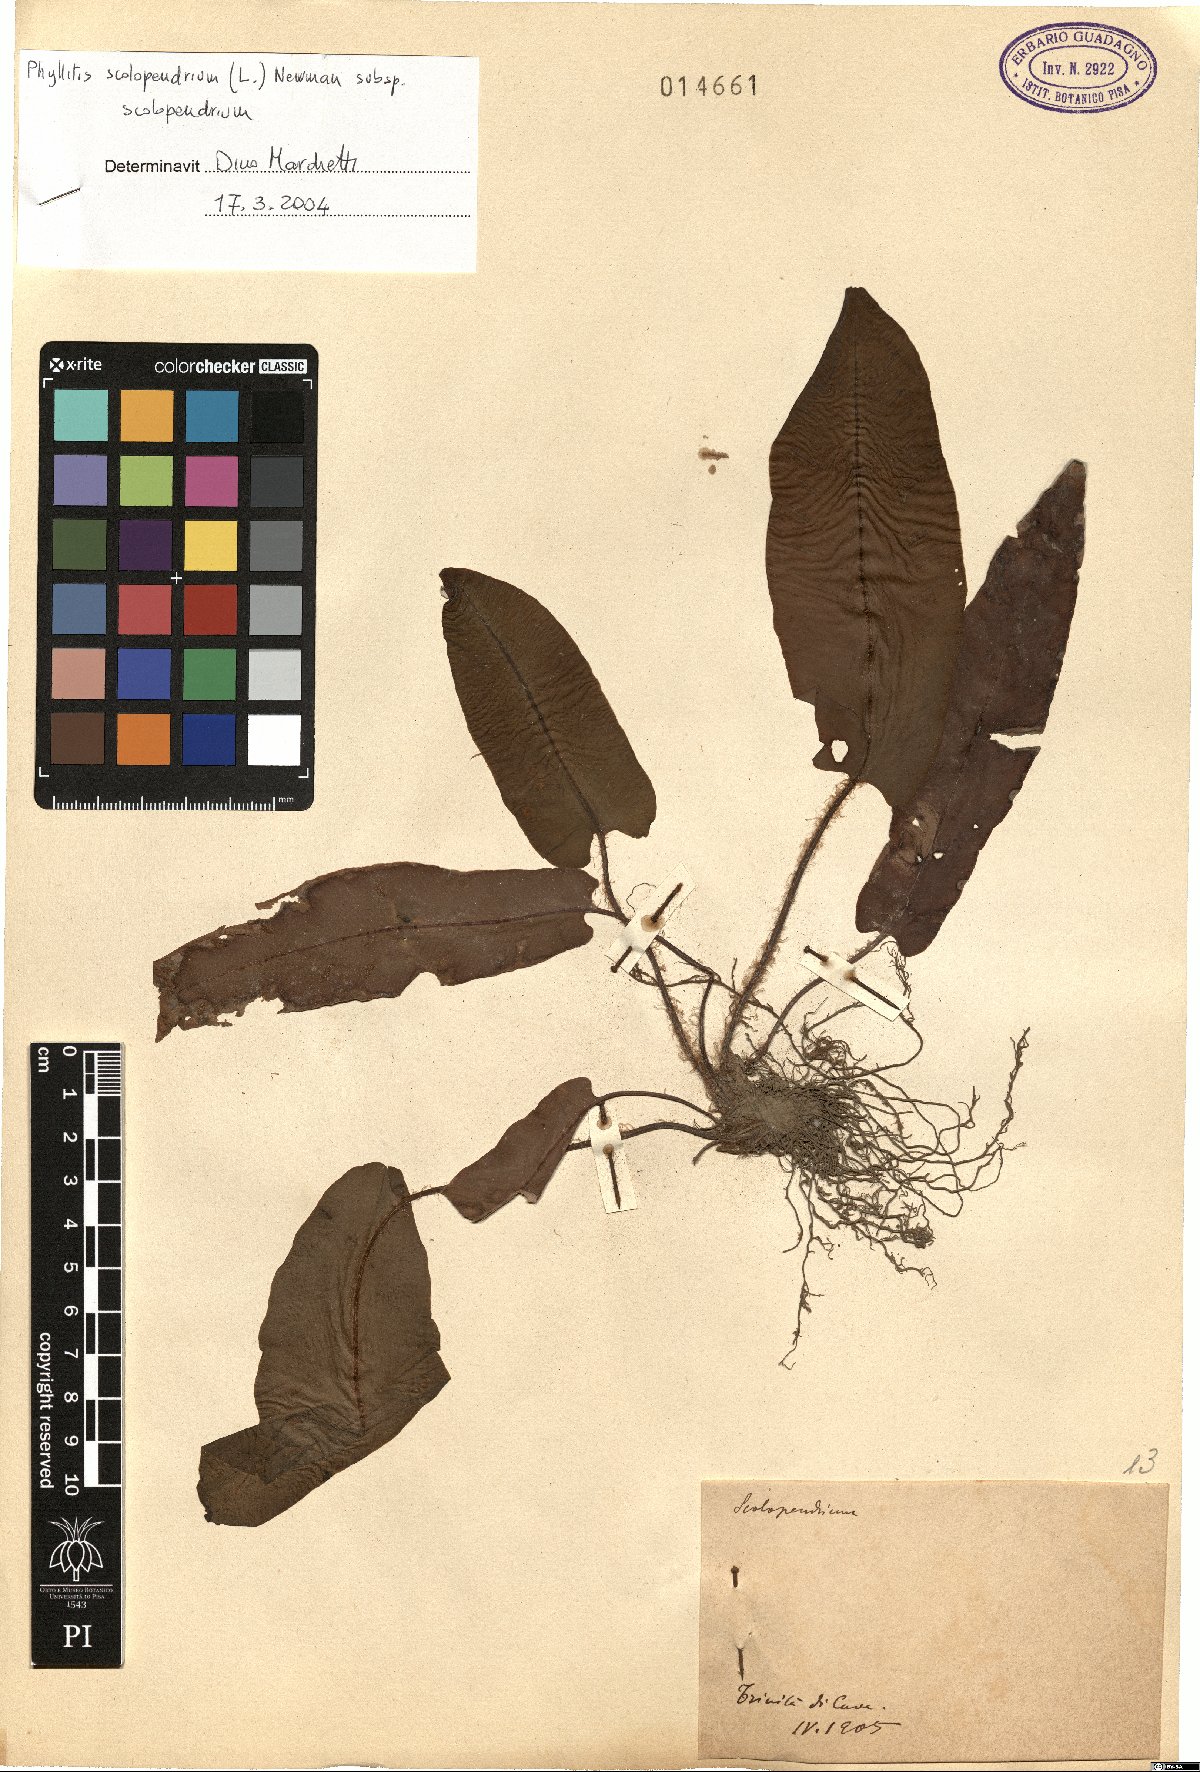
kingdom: Plantae
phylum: Tracheophyta
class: Polypodiopsida
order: Polypodiales
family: Aspleniaceae
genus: Asplenium
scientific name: Asplenium scolopendrium
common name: Hart's-tongue fern
